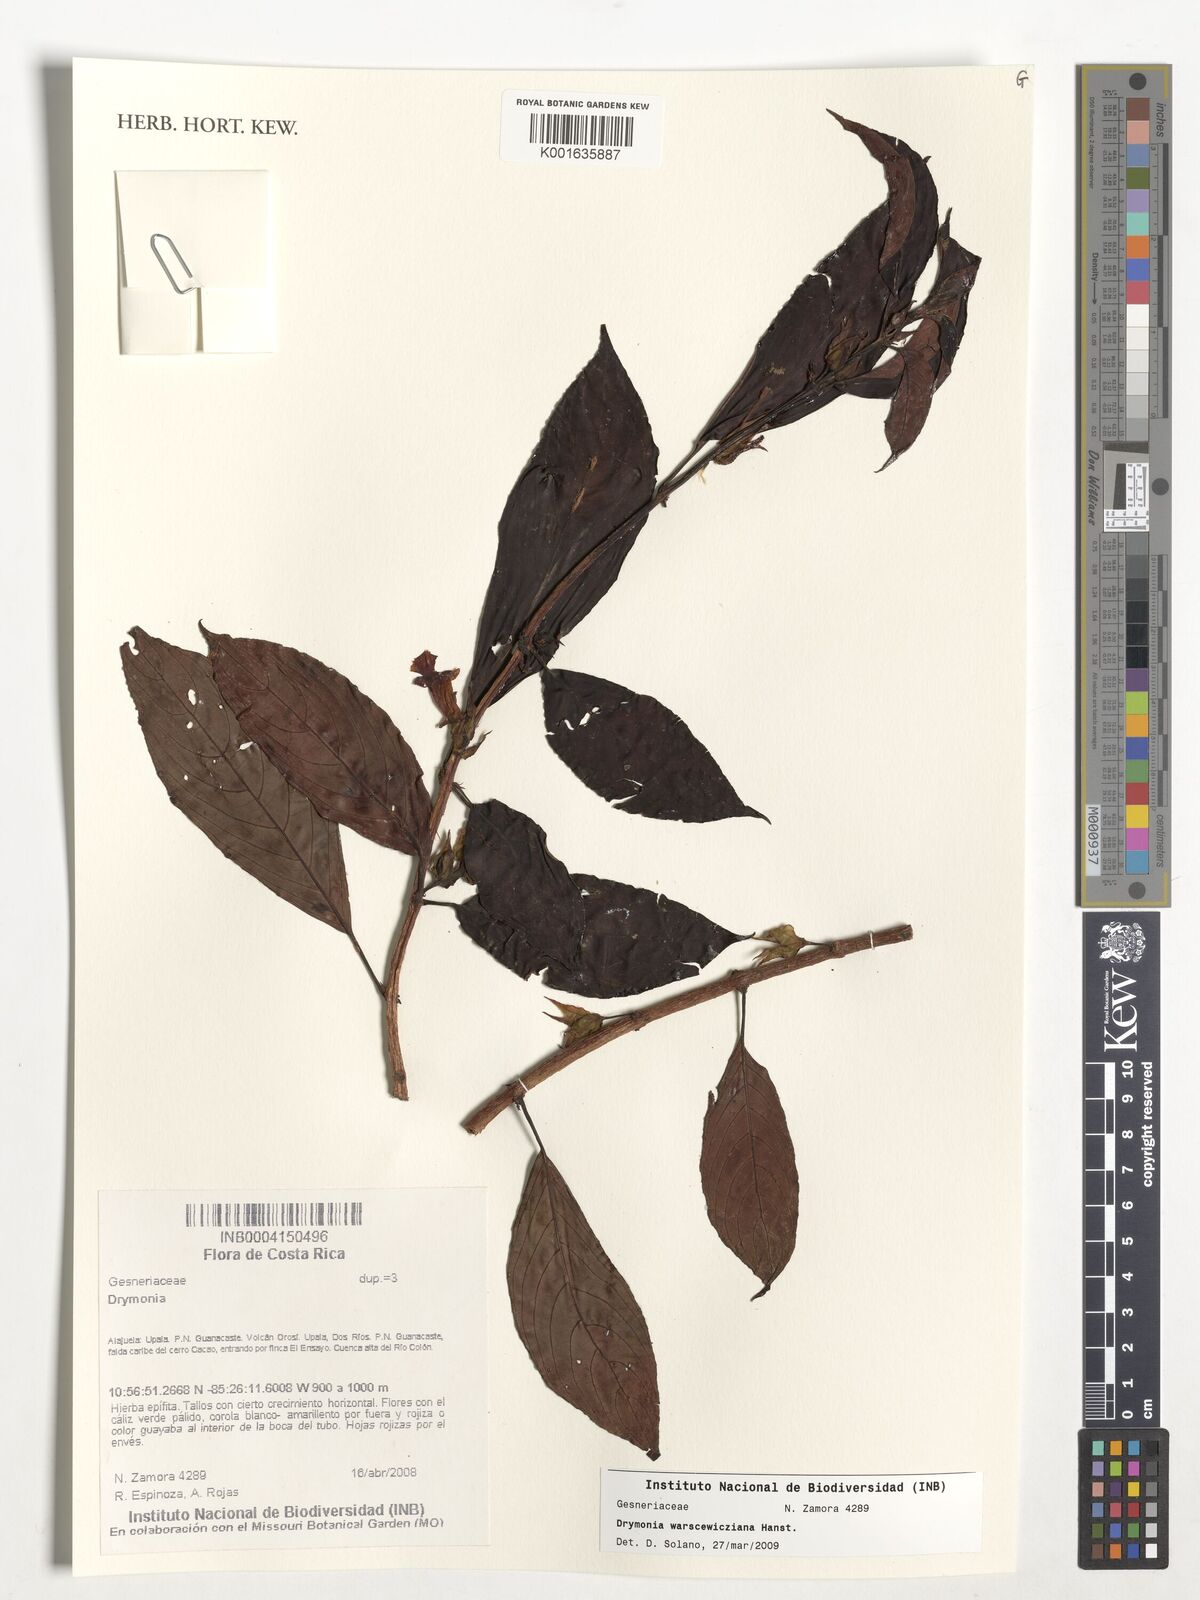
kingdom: Plantae
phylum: Tracheophyta
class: Magnoliopsida
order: Lamiales
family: Gesneriaceae
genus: Drymonia
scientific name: Drymonia warszewicziana
